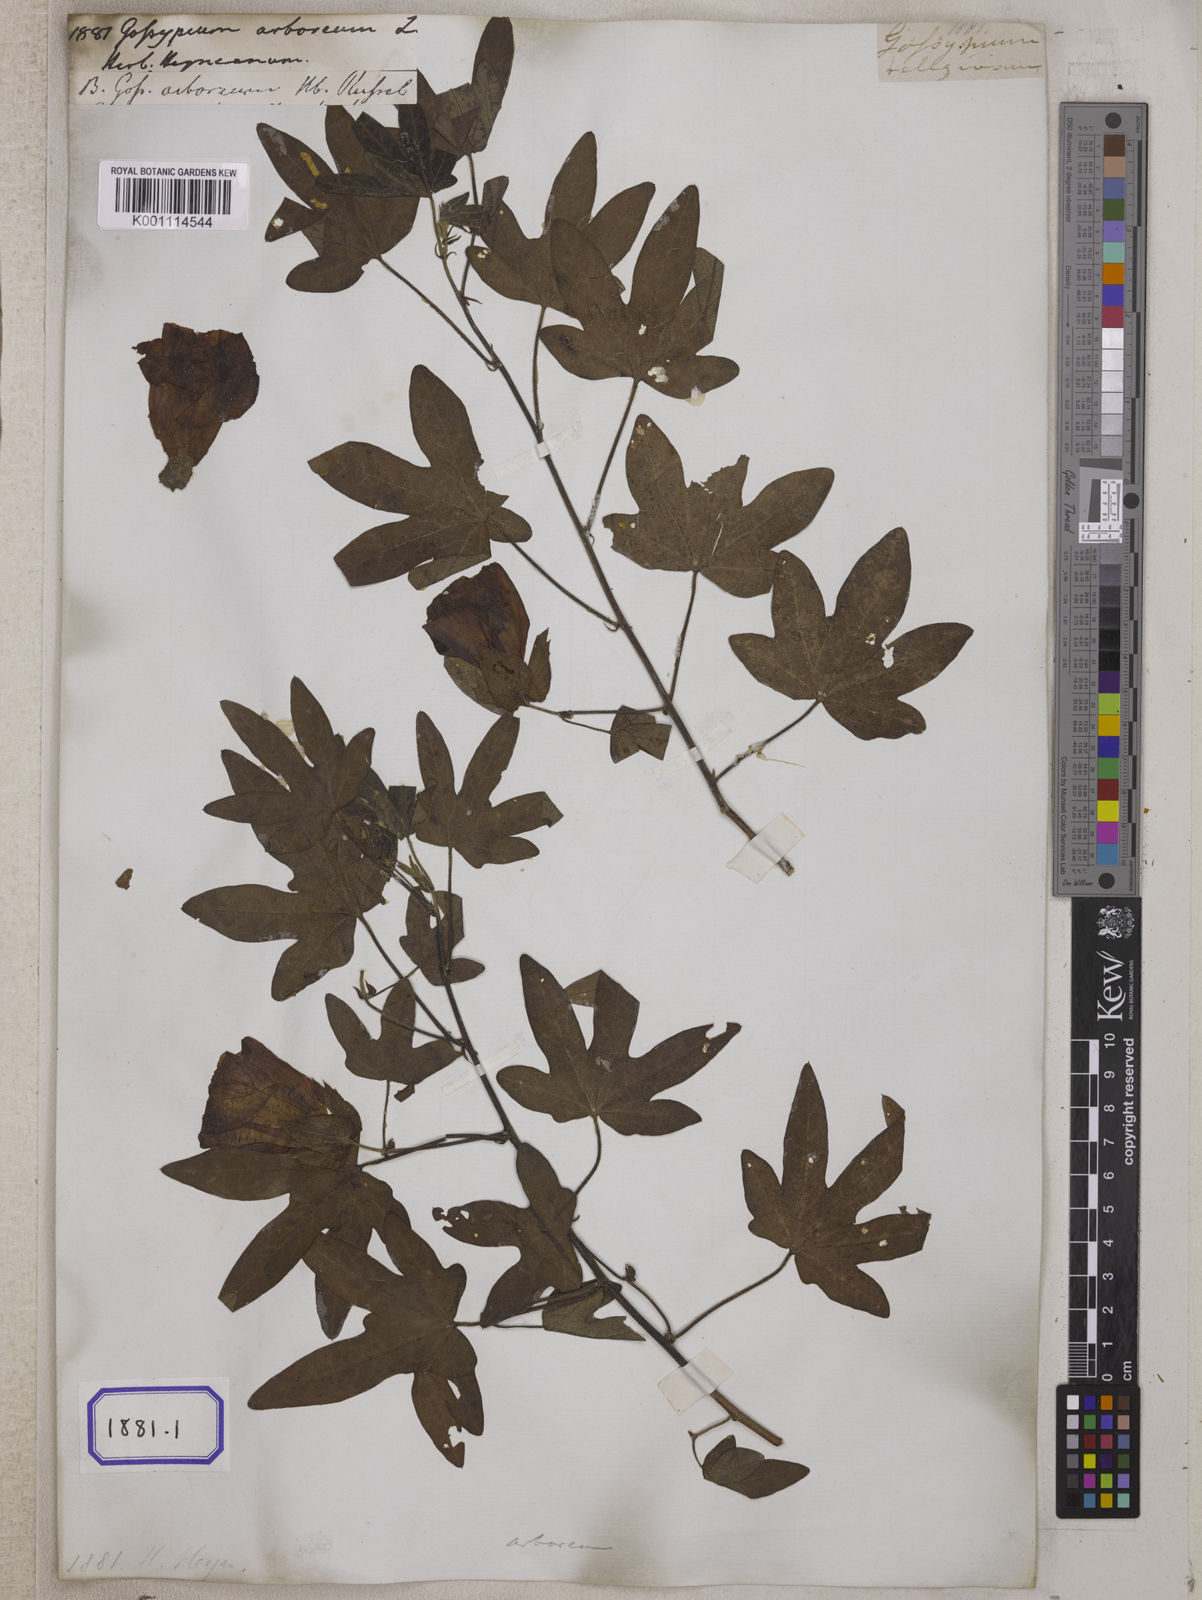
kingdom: Plantae
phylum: Tracheophyta
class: Magnoliopsida
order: Malvales
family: Malvaceae
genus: Gossypium
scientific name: Gossypium arboreum
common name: Tree cotton
